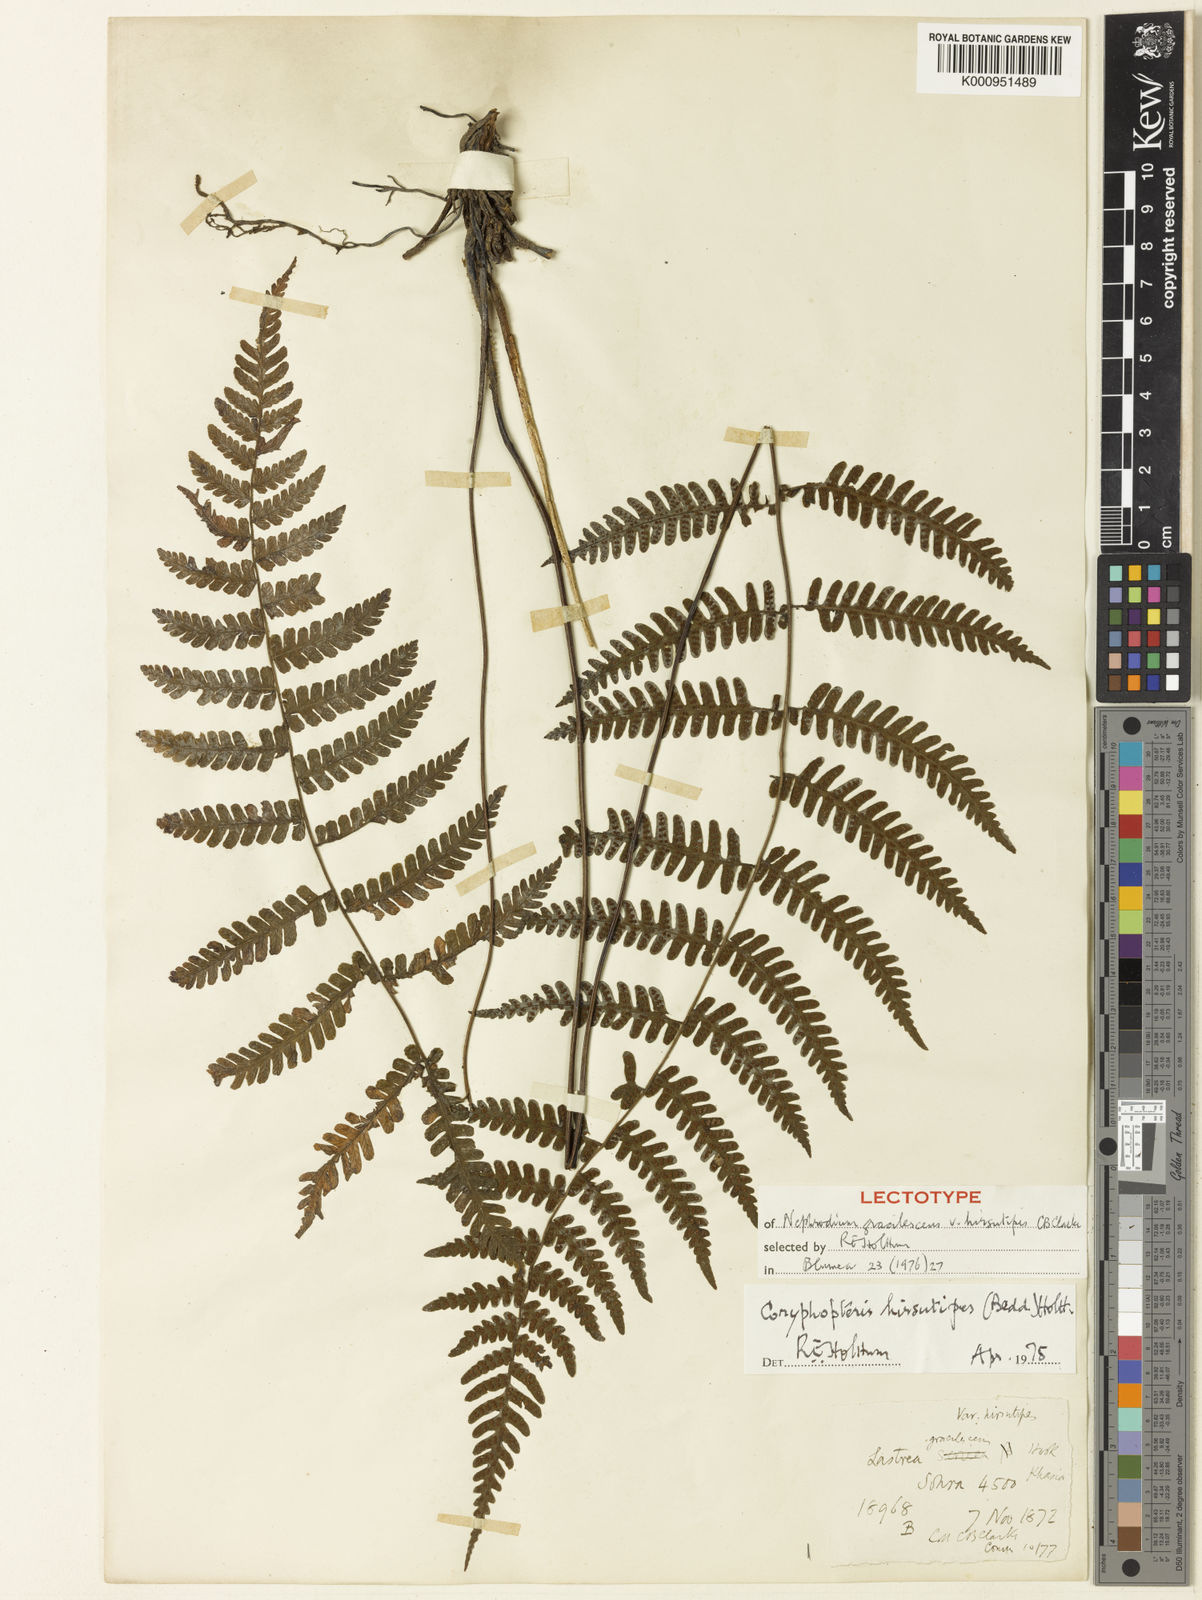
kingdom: Plantae
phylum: Tracheophyta
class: Polypodiopsida
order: Polypodiales
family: Thelypteridaceae
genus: Coryphopteris
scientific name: Coryphopteris hirsutipes
